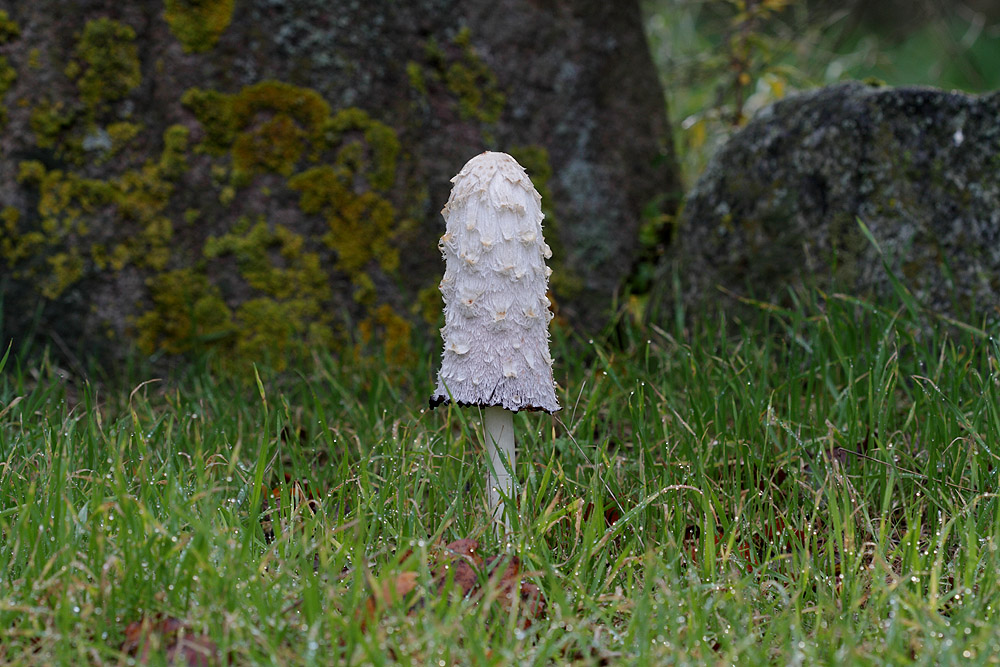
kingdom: Fungi
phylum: Basidiomycota
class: Agaricomycetes
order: Agaricales
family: Agaricaceae
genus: Coprinus
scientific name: Coprinus comatus
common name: stor parykhat
